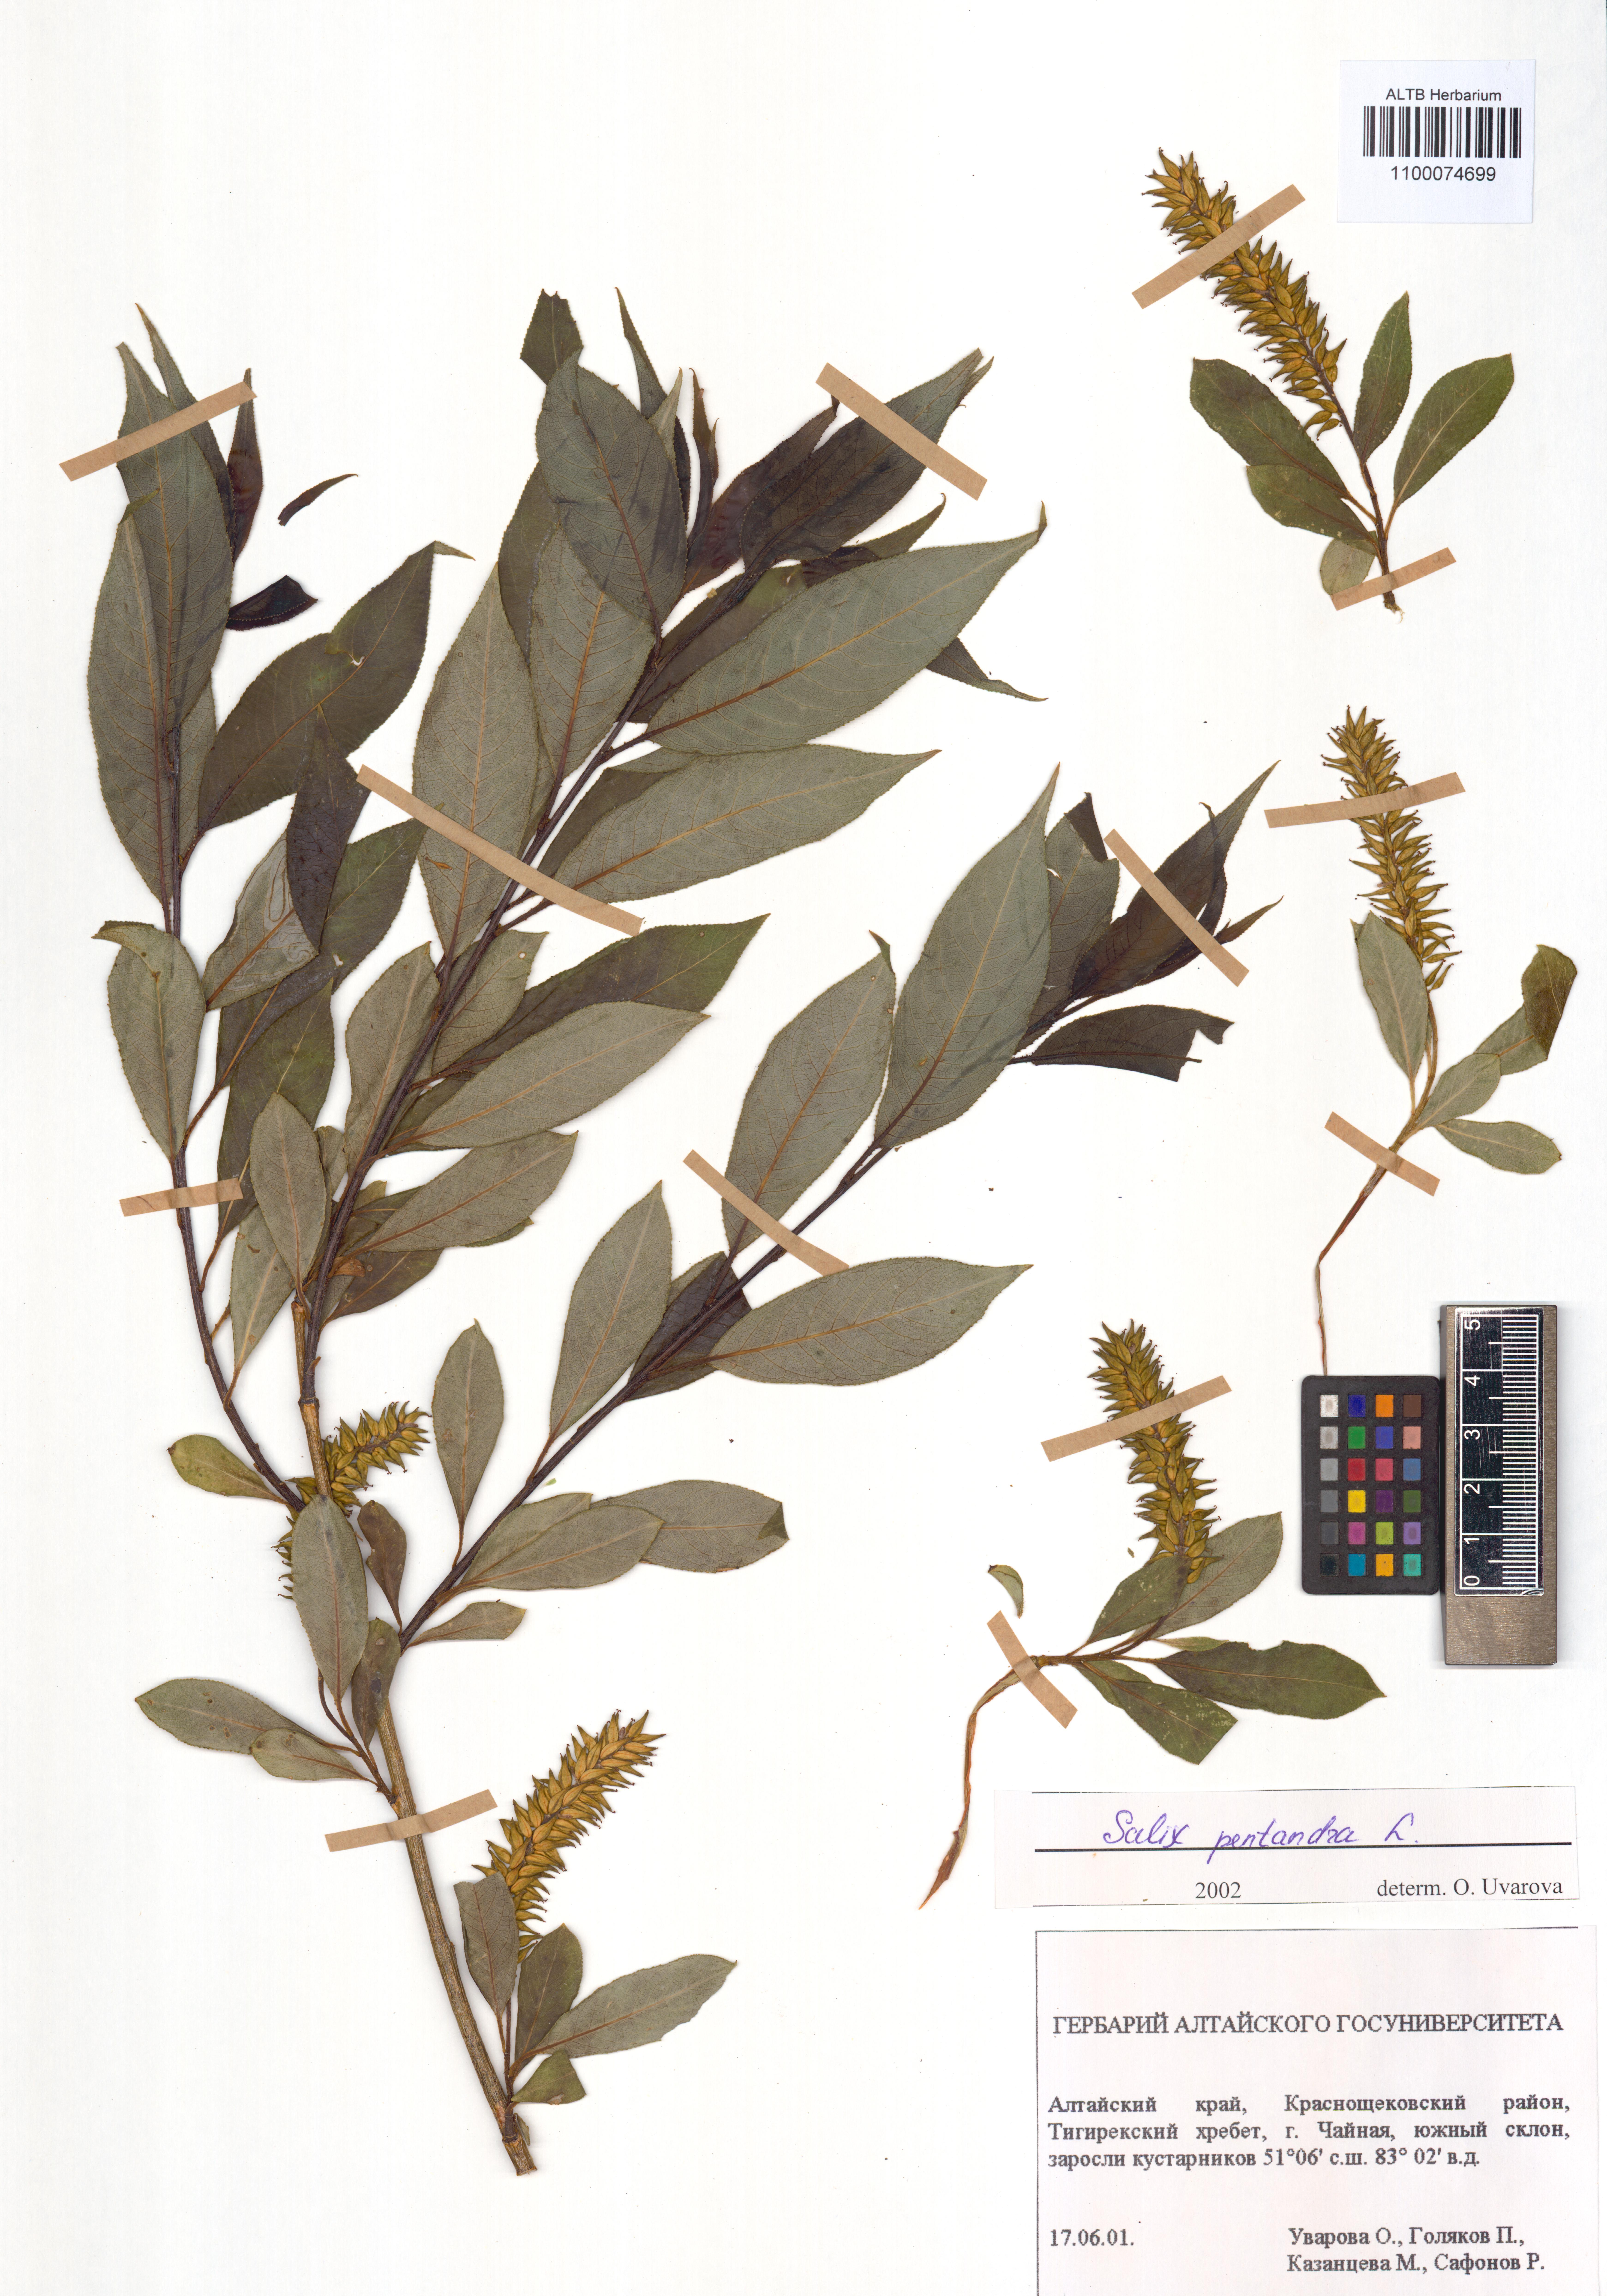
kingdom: Plantae
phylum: Tracheophyta
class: Magnoliopsida
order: Malpighiales
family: Salicaceae
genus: Salix
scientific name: Salix pentandra
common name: Bay willow
